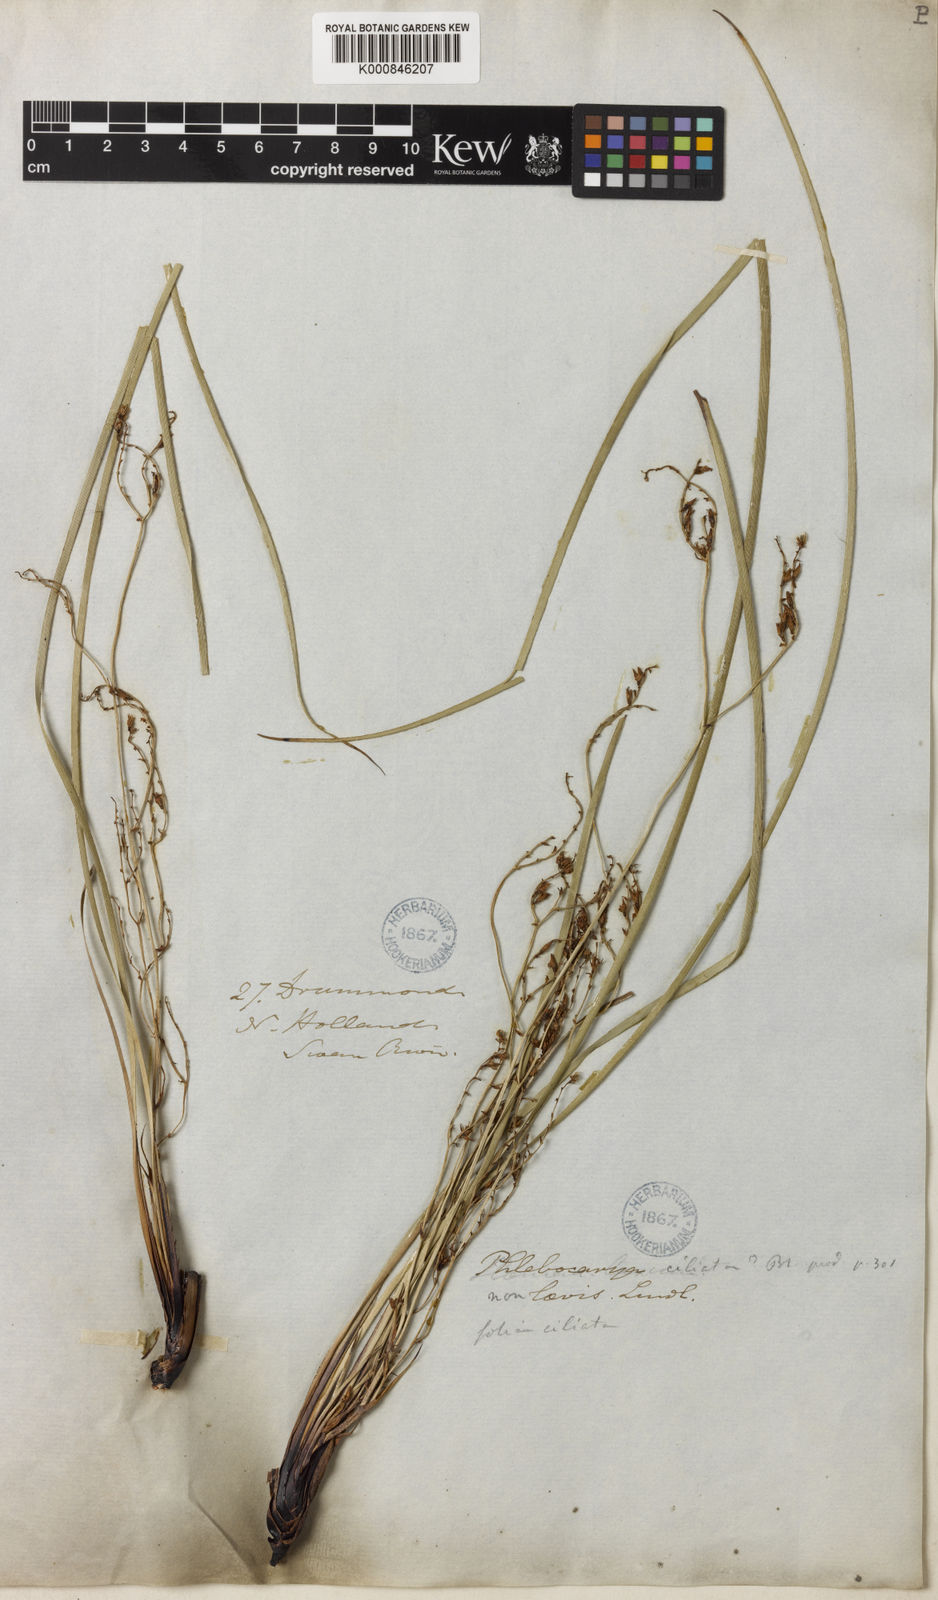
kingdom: Plantae
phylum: Tracheophyta
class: Liliopsida
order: Commelinales
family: Haemodoraceae
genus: Phlebocarya
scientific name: Phlebocarya ciliata
